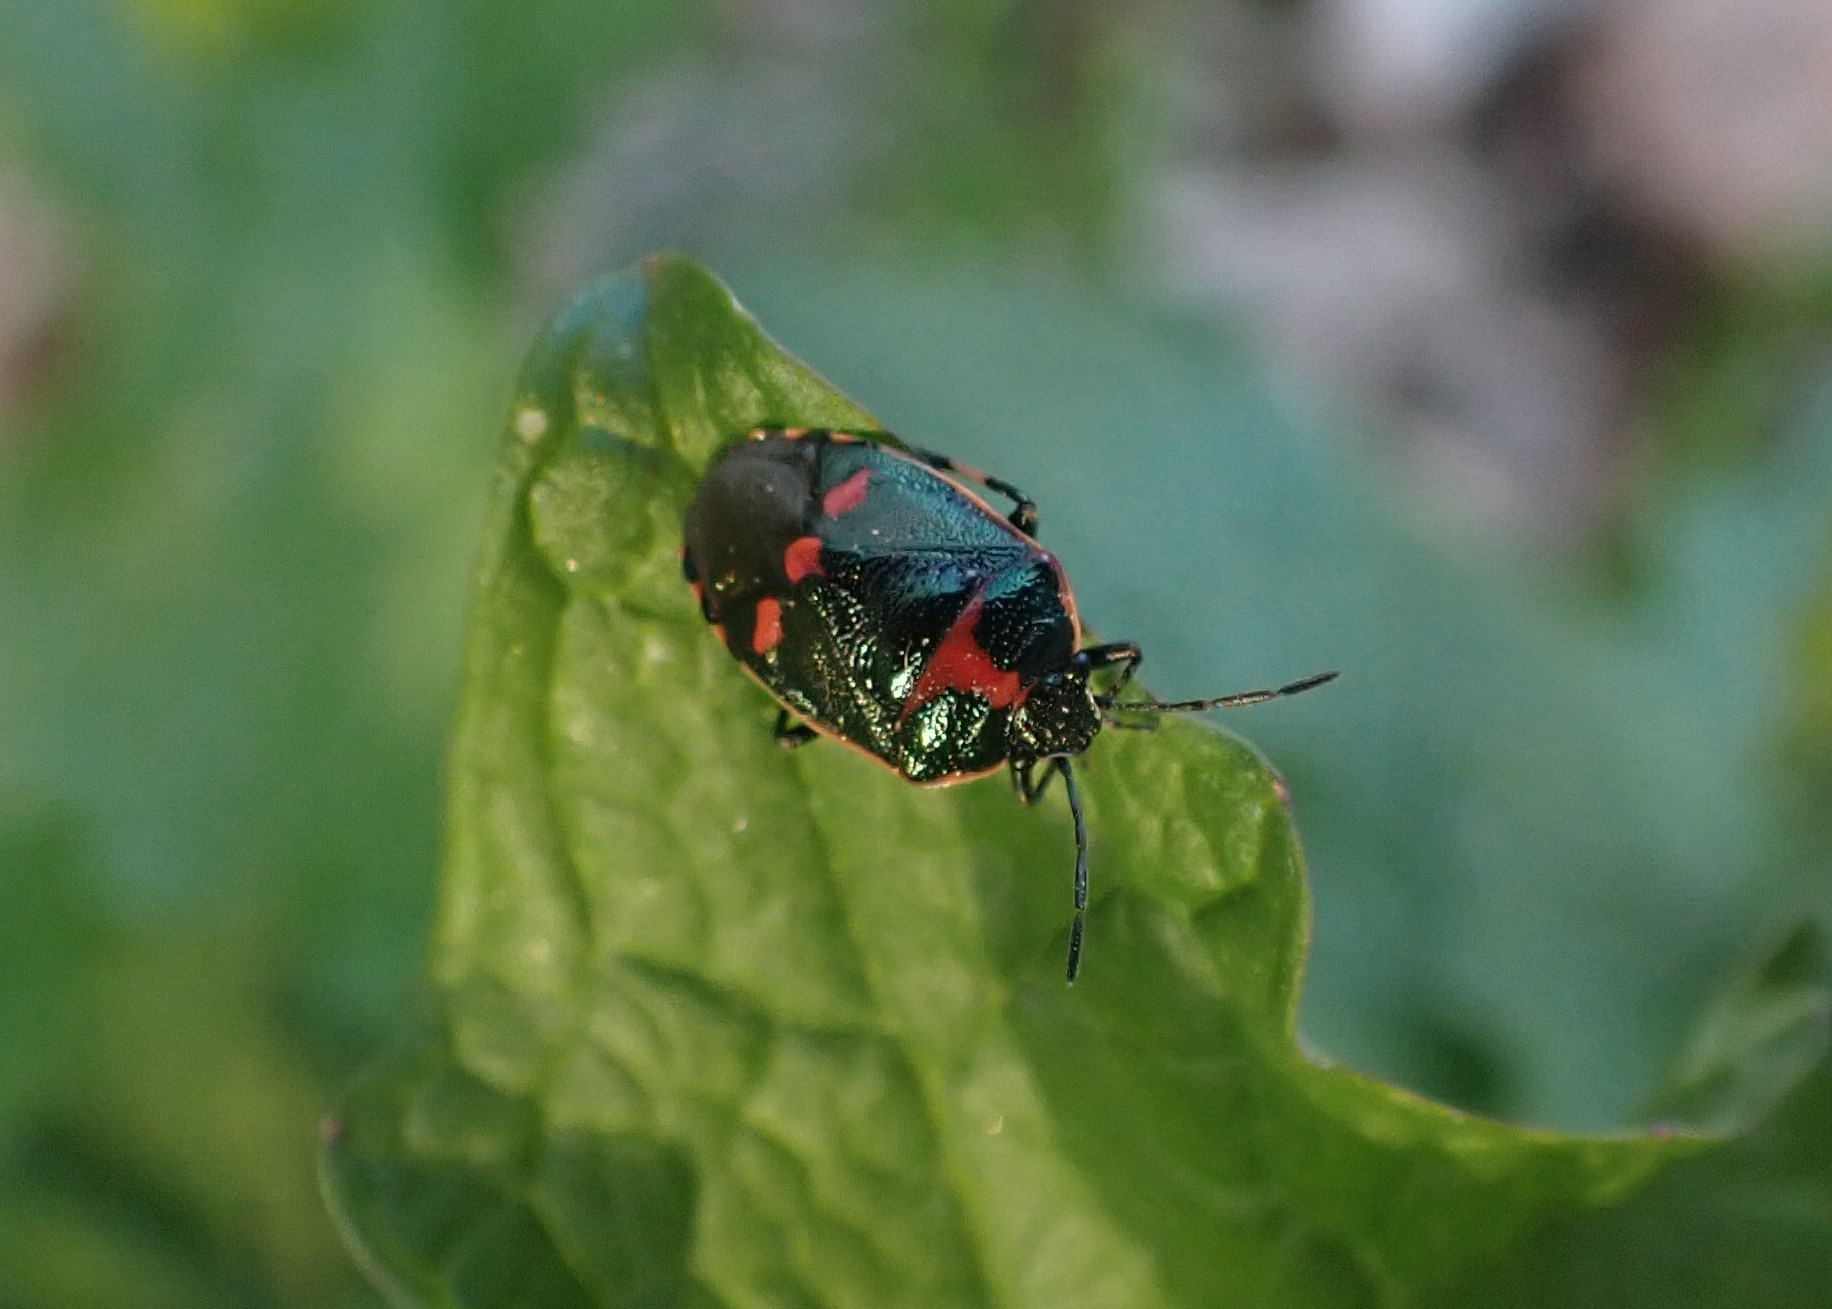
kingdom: Animalia
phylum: Arthropoda
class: Insecta
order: Hemiptera
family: Pentatomidae
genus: Eurydema
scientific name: Eurydema oleracea
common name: Almindelig kåltæge
